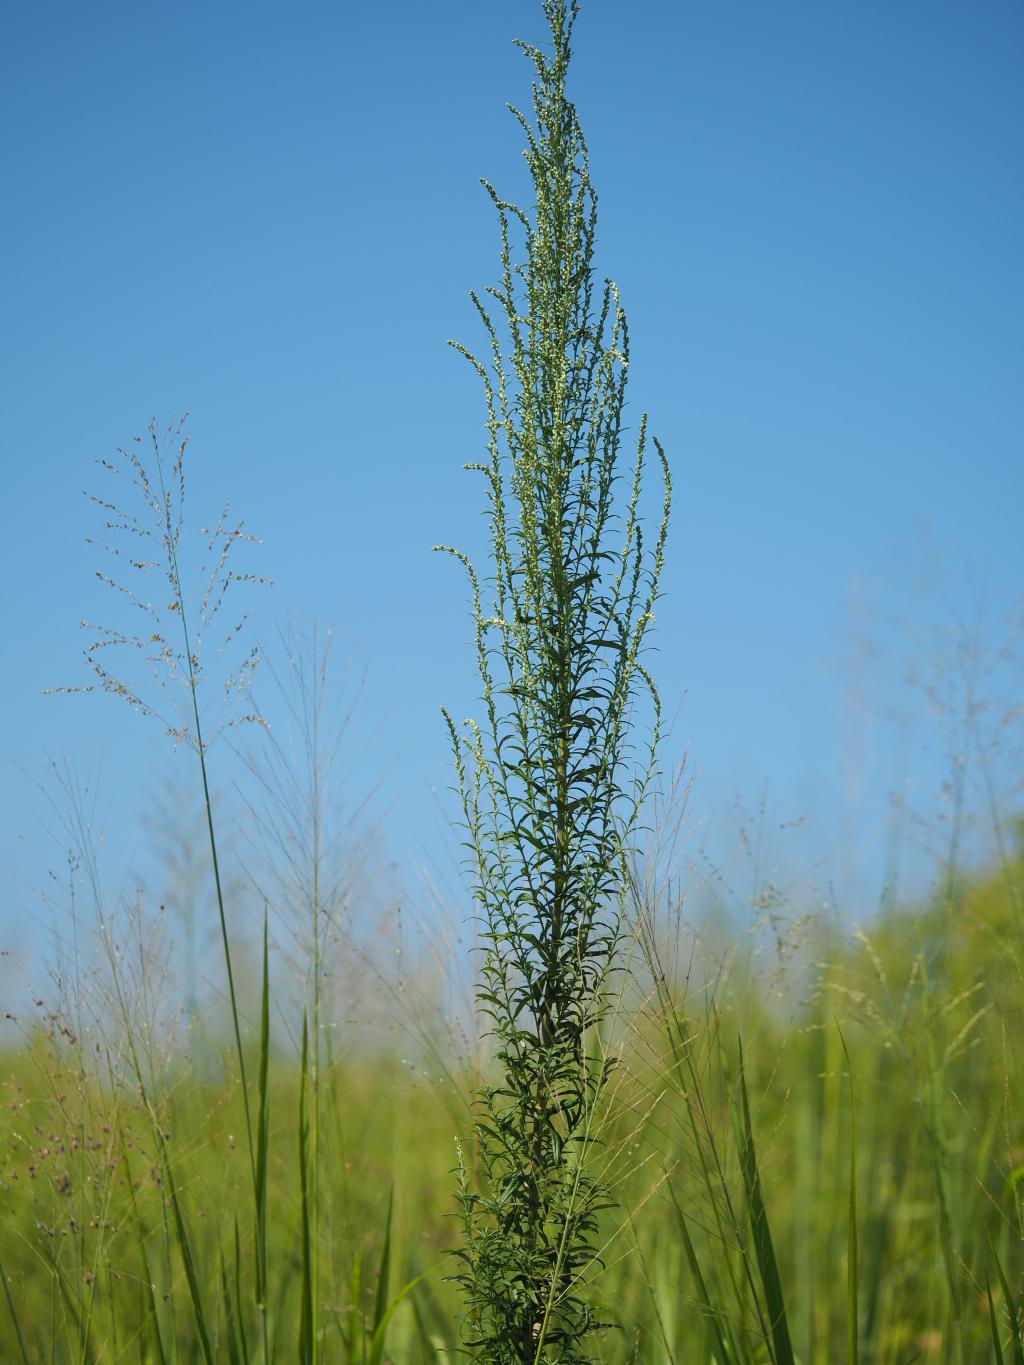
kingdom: Plantae
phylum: Tracheophyta
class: Magnoliopsida
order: Asterales
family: Asteraceae
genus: Artemisia
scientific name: Artemisia indica
